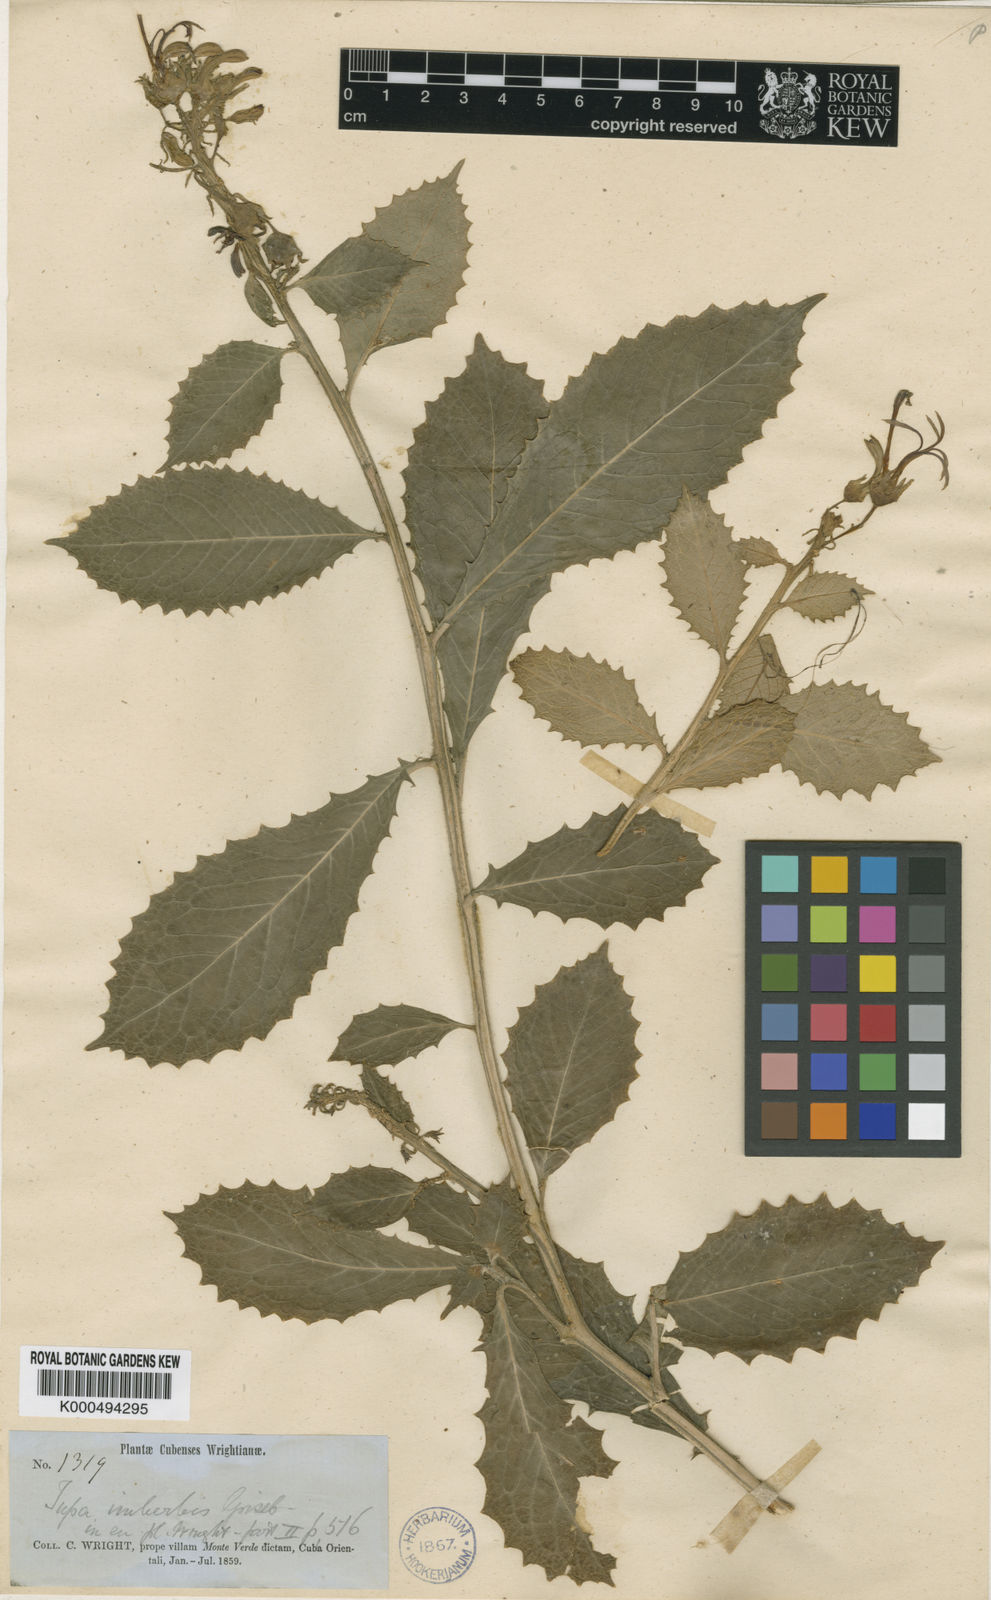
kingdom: Plantae
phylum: Tracheophyta
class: Magnoliopsida
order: Asterales
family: Campanulaceae
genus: Lobelia
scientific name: Lobelia imberbis
